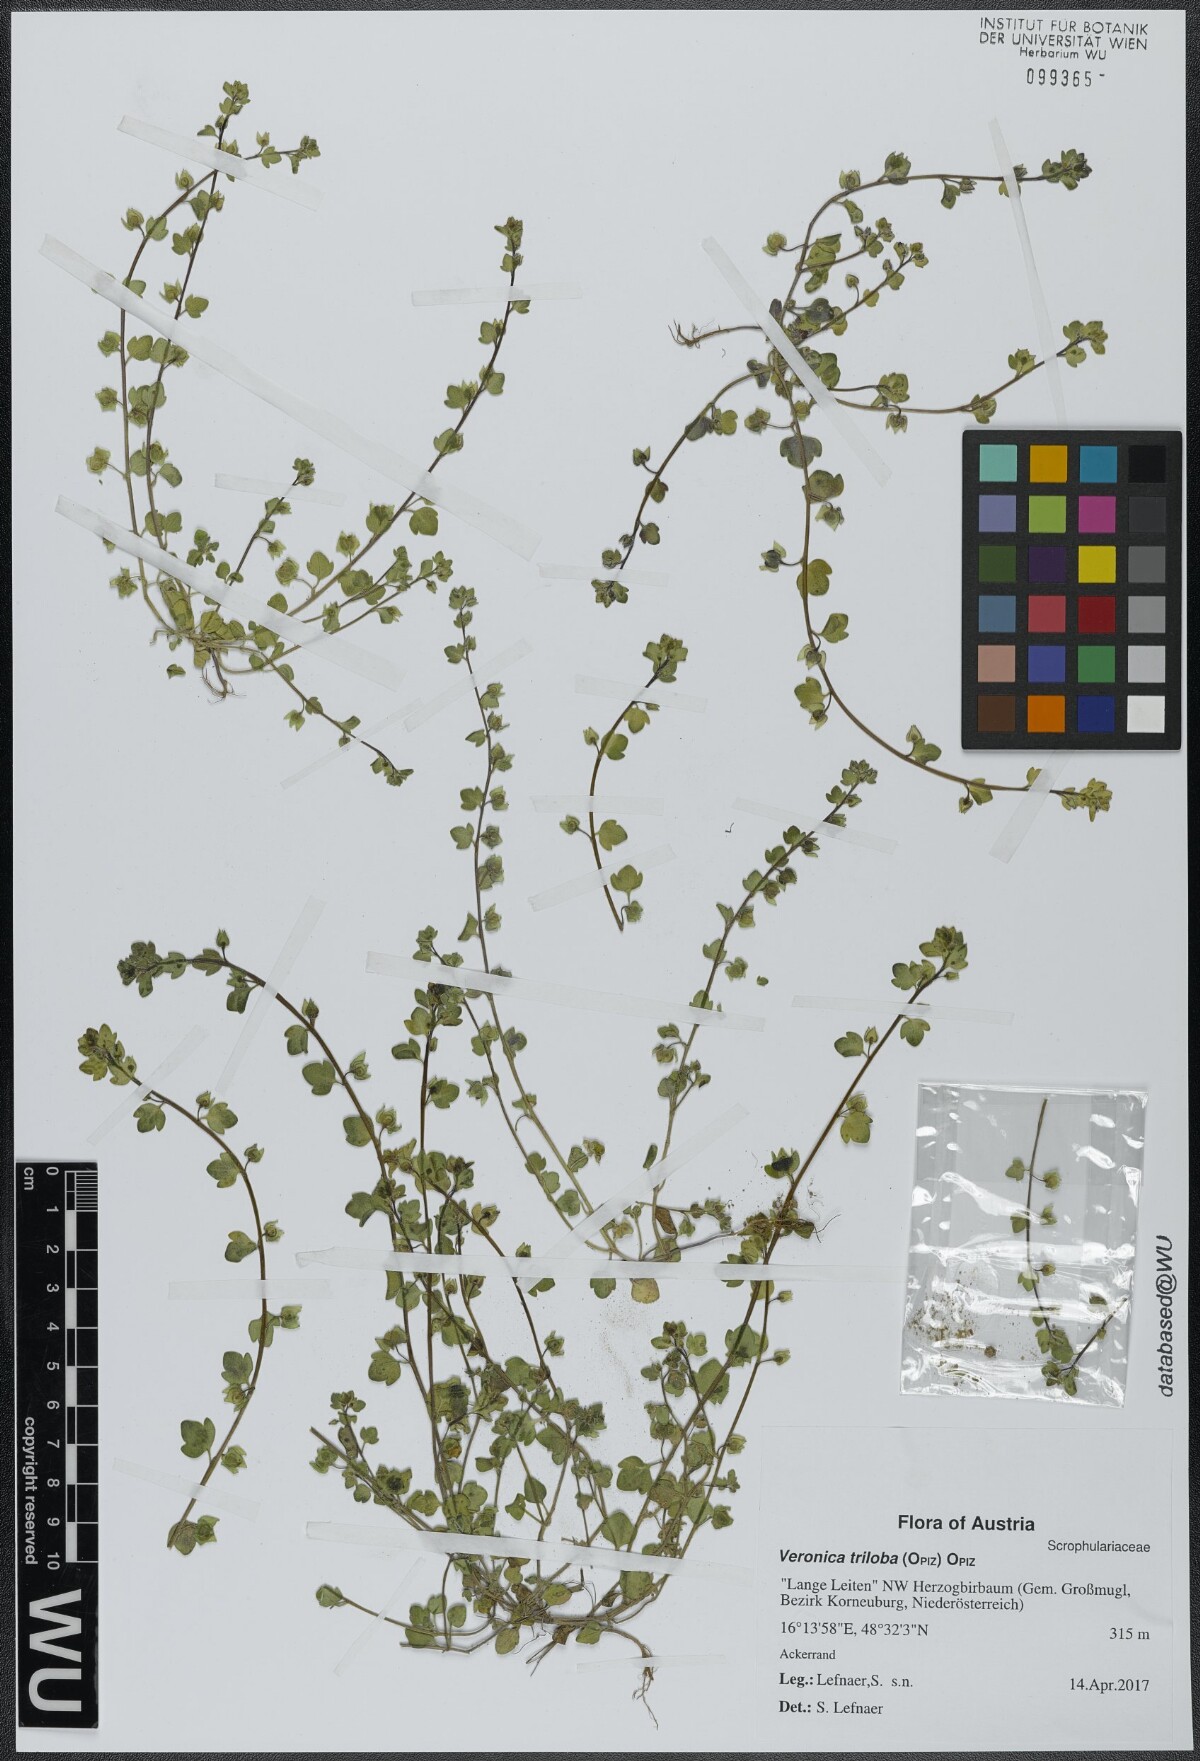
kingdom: Plantae
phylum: Tracheophyta
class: Magnoliopsida
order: Lamiales
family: Plantaginaceae
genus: Veronica
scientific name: Veronica triloba
